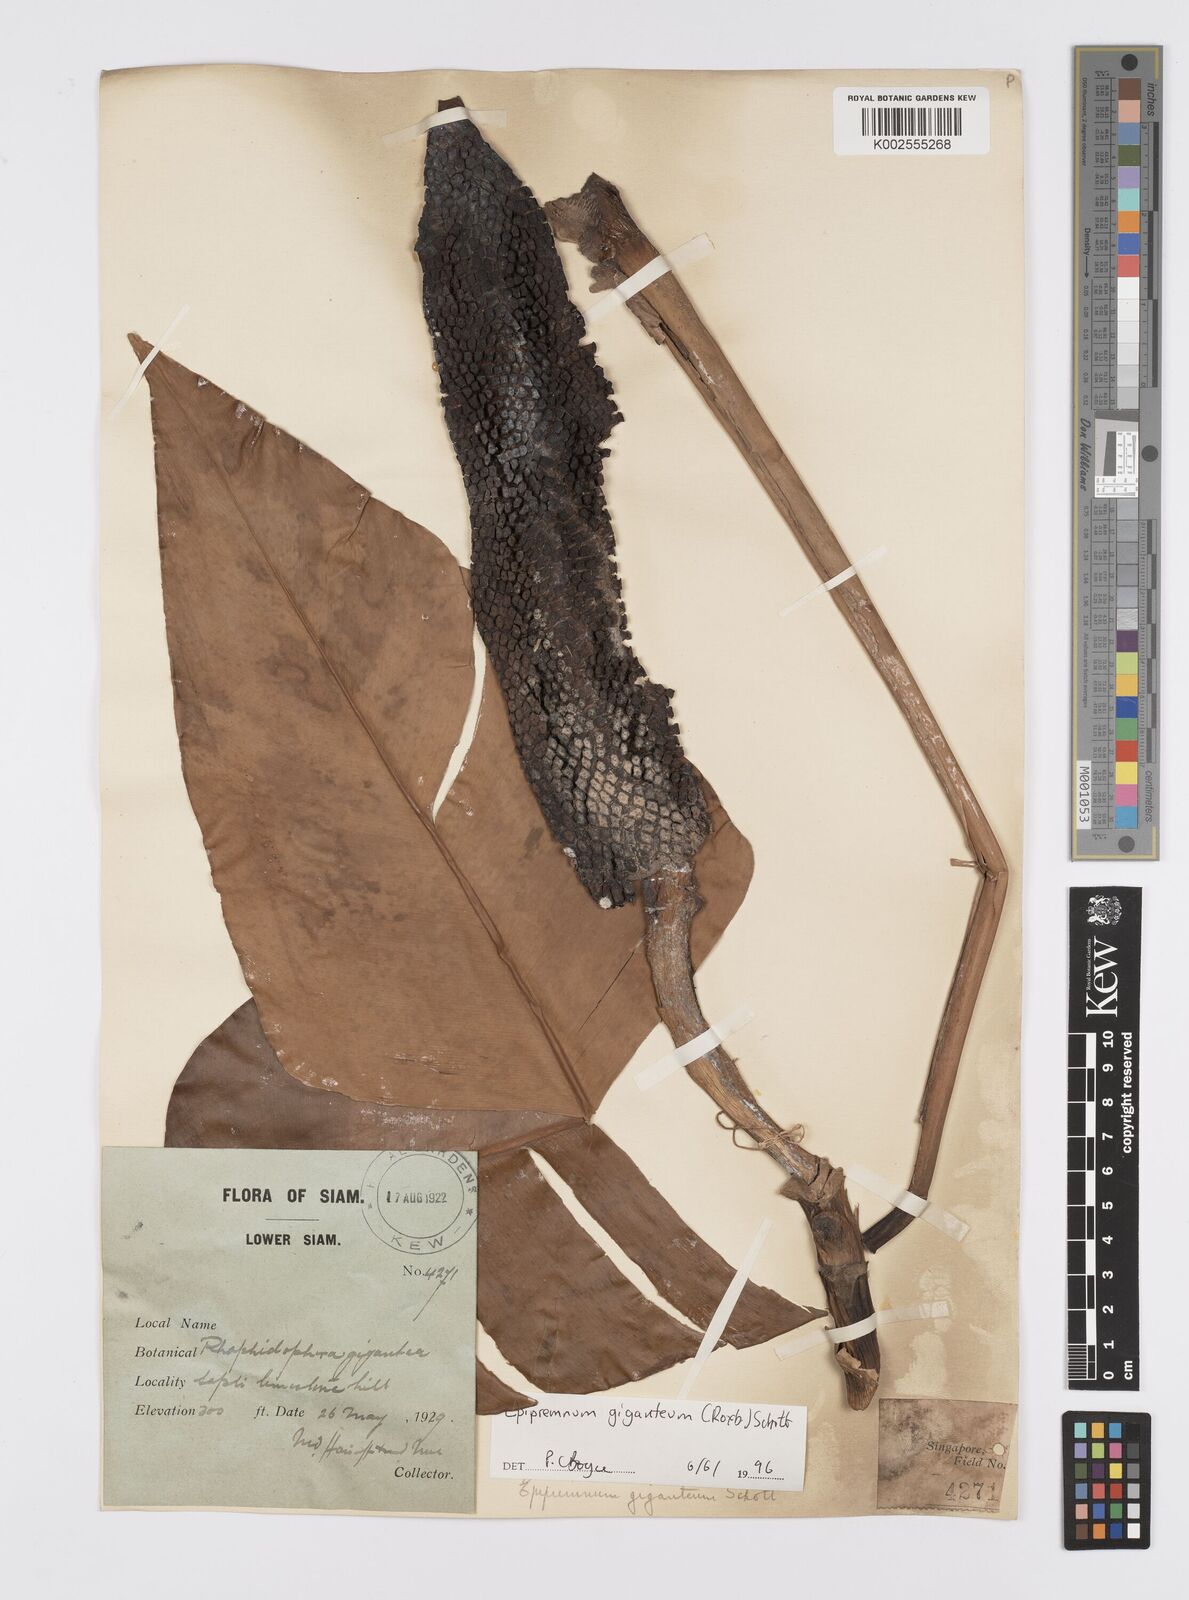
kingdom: Plantae
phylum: Tracheophyta
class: Liliopsida
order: Alismatales
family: Araceae
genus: Epipremnum
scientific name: Epipremnum giganteum
